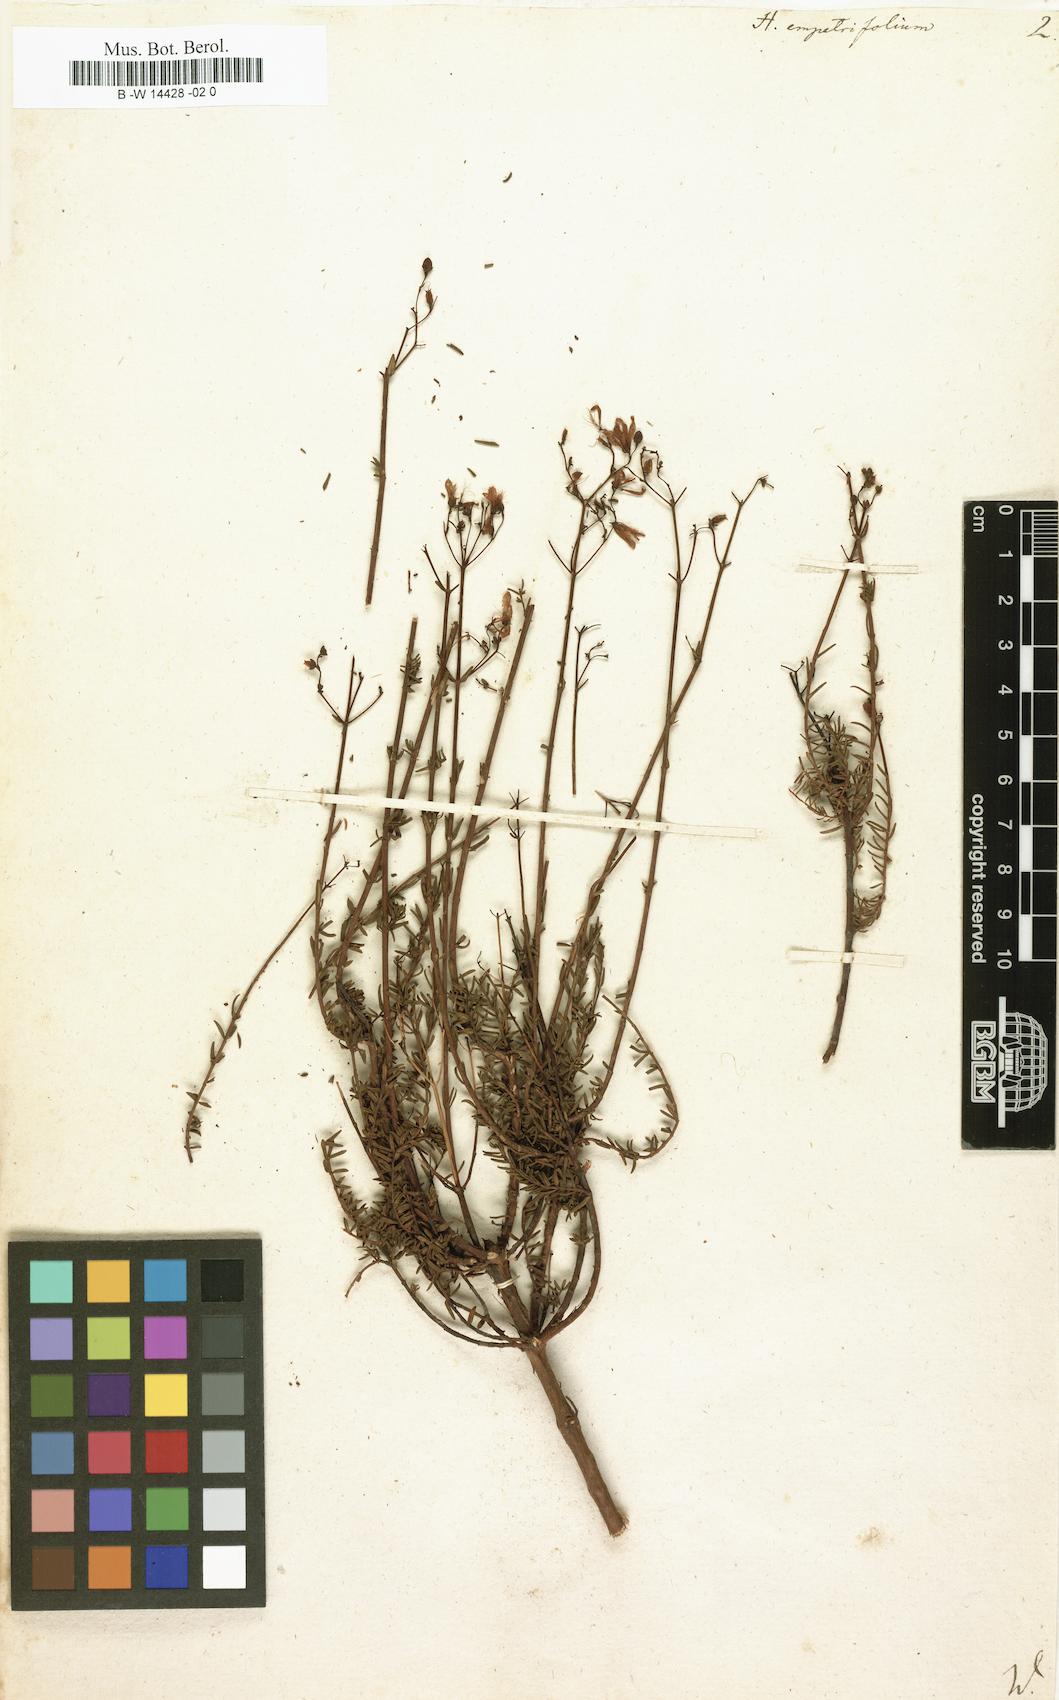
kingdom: Plantae
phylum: Tracheophyta
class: Magnoliopsida
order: Malpighiales
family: Hypericaceae
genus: Hypericum
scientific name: Hypericum empetrifolium
